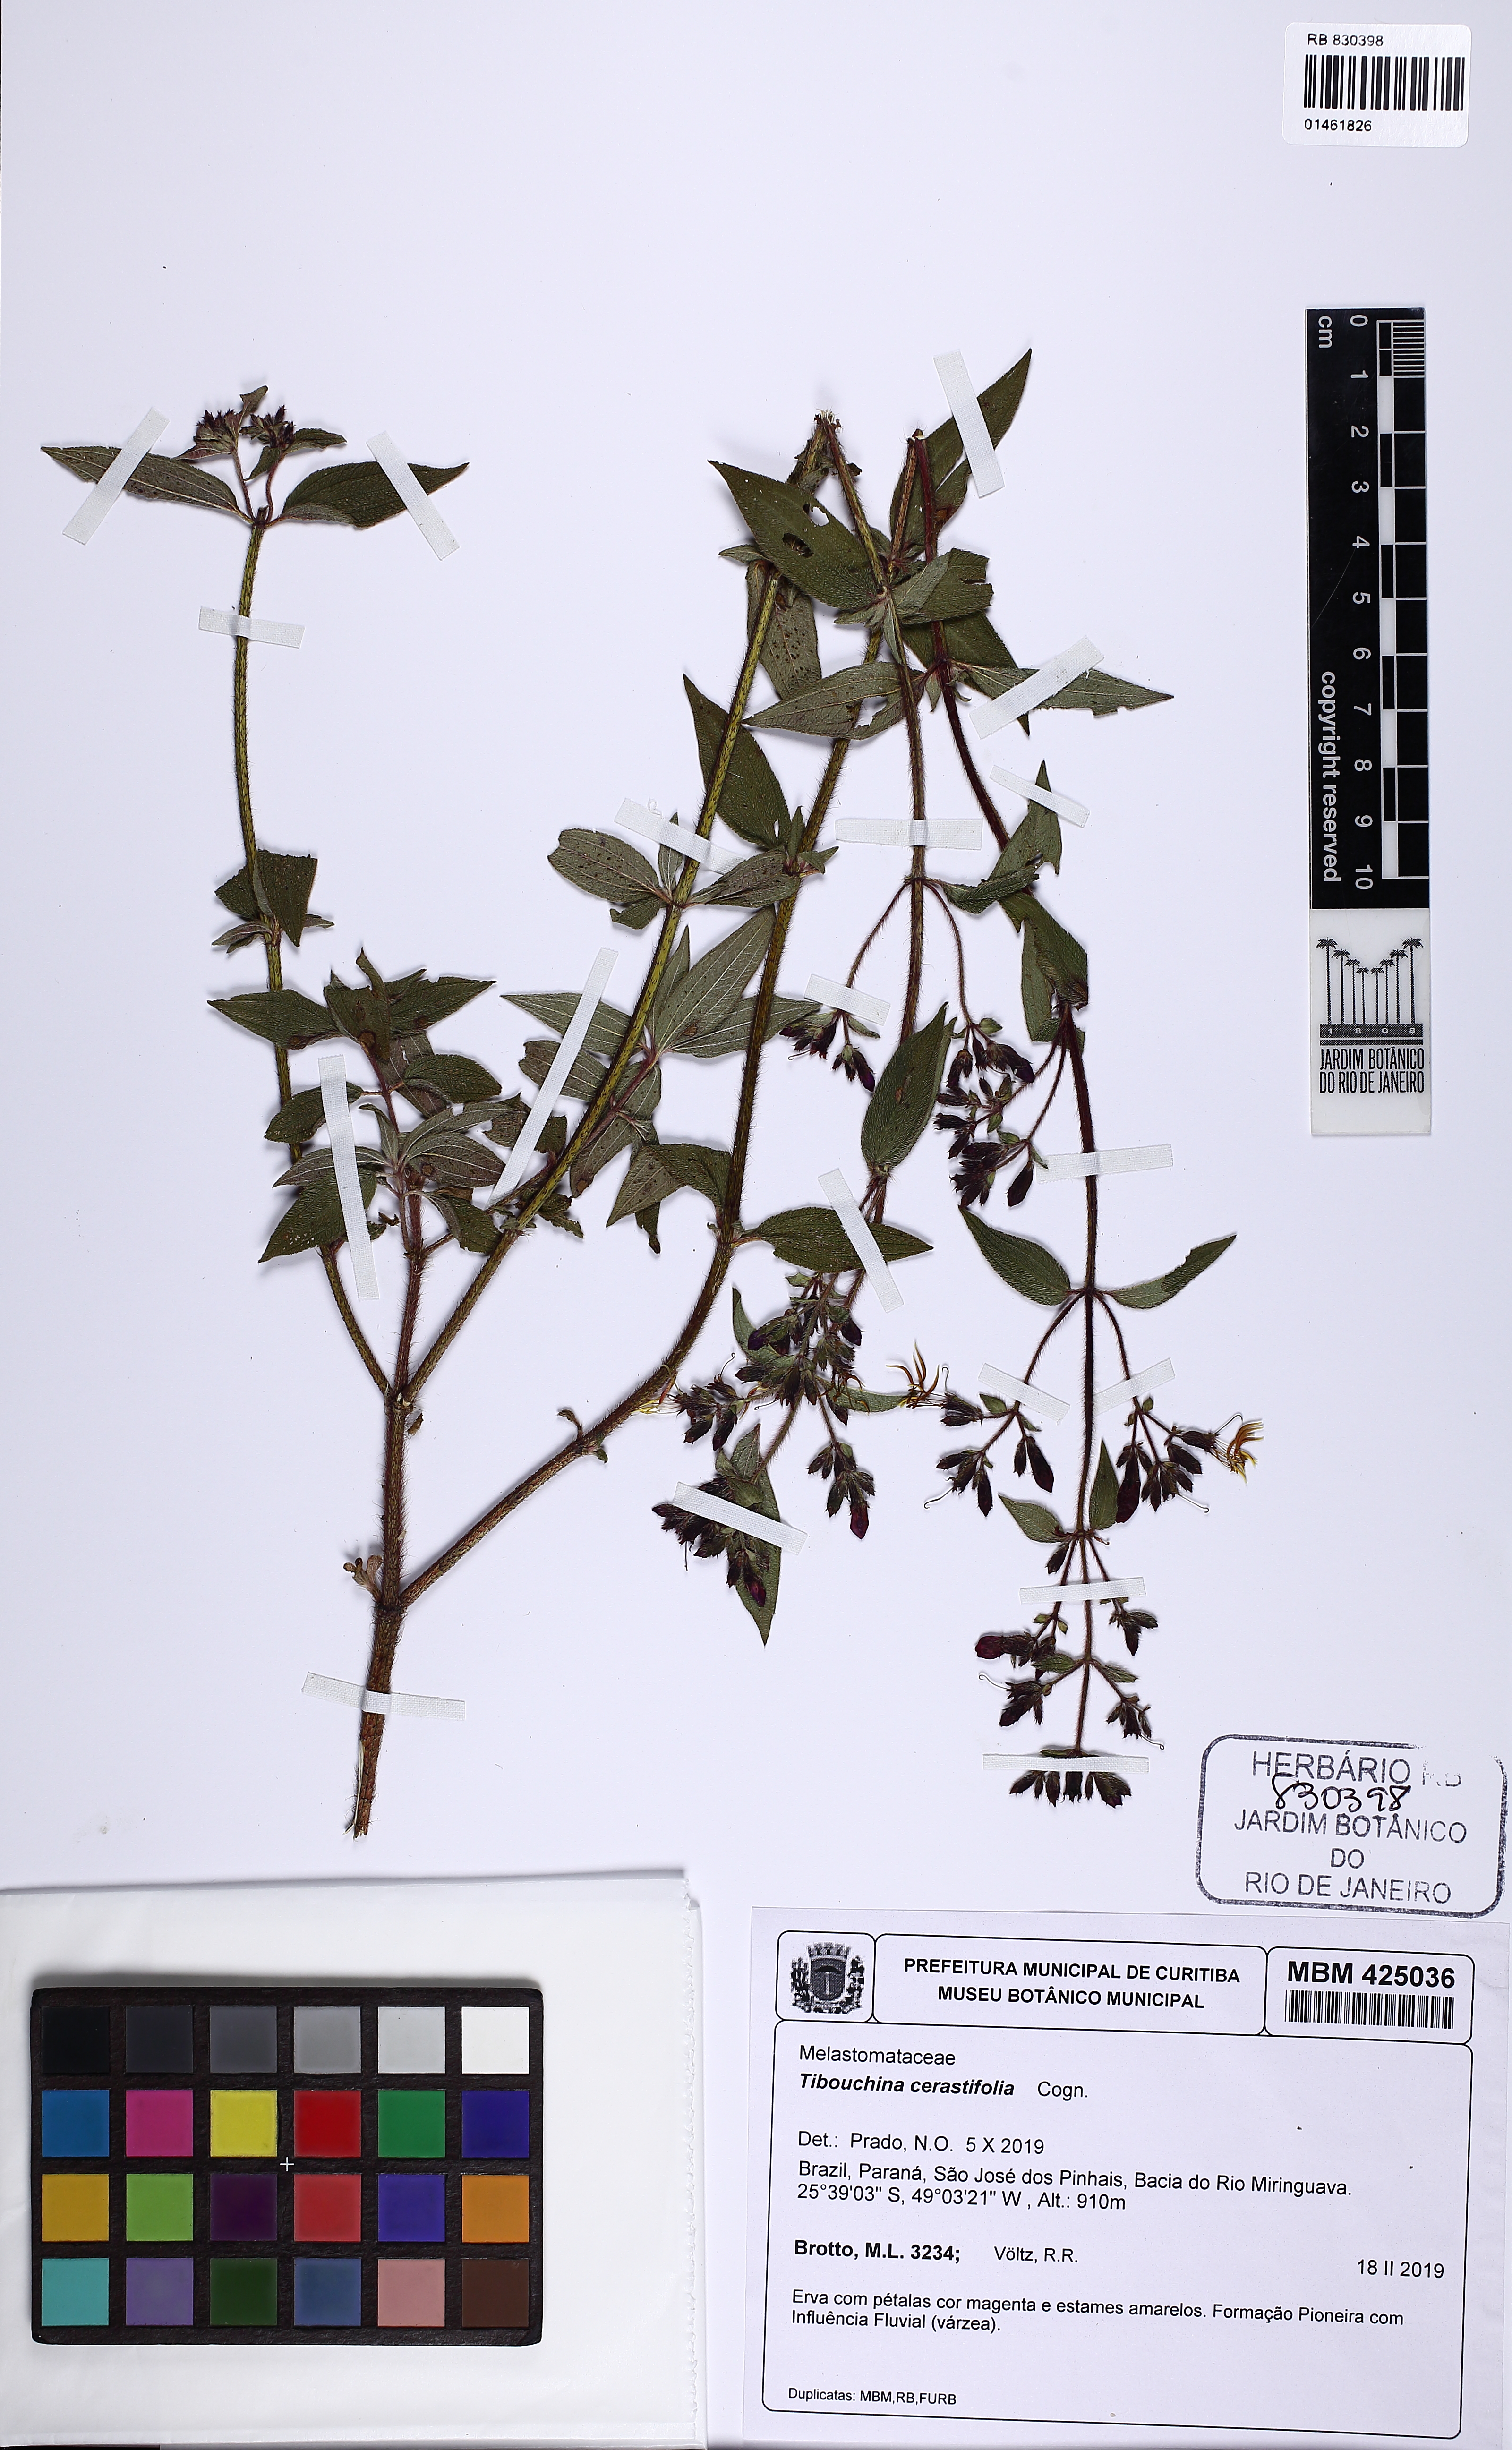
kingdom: Plantae
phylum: Tracheophyta
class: Magnoliopsida
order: Myrtales
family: Melastomataceae
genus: Chaetogastra
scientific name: Chaetogastra cerastifolia
